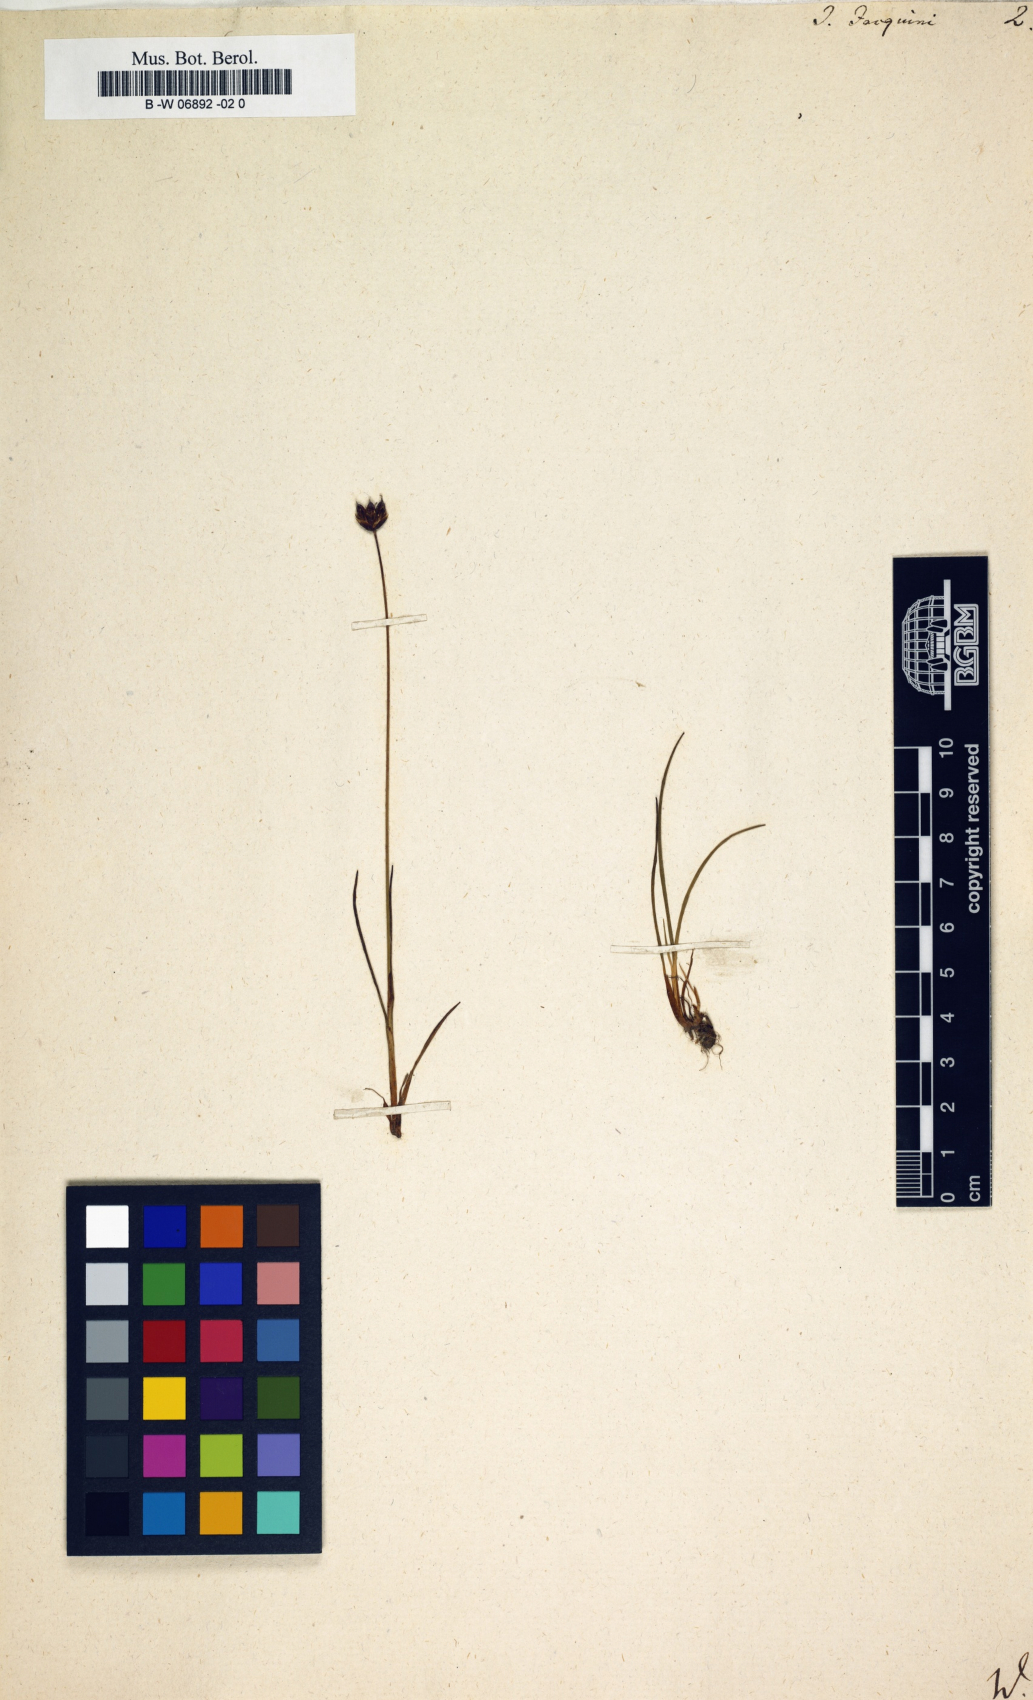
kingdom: Plantae
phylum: Tracheophyta
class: Liliopsida
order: Poales
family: Juncaceae
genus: Juncus
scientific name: Juncus jacquinii
